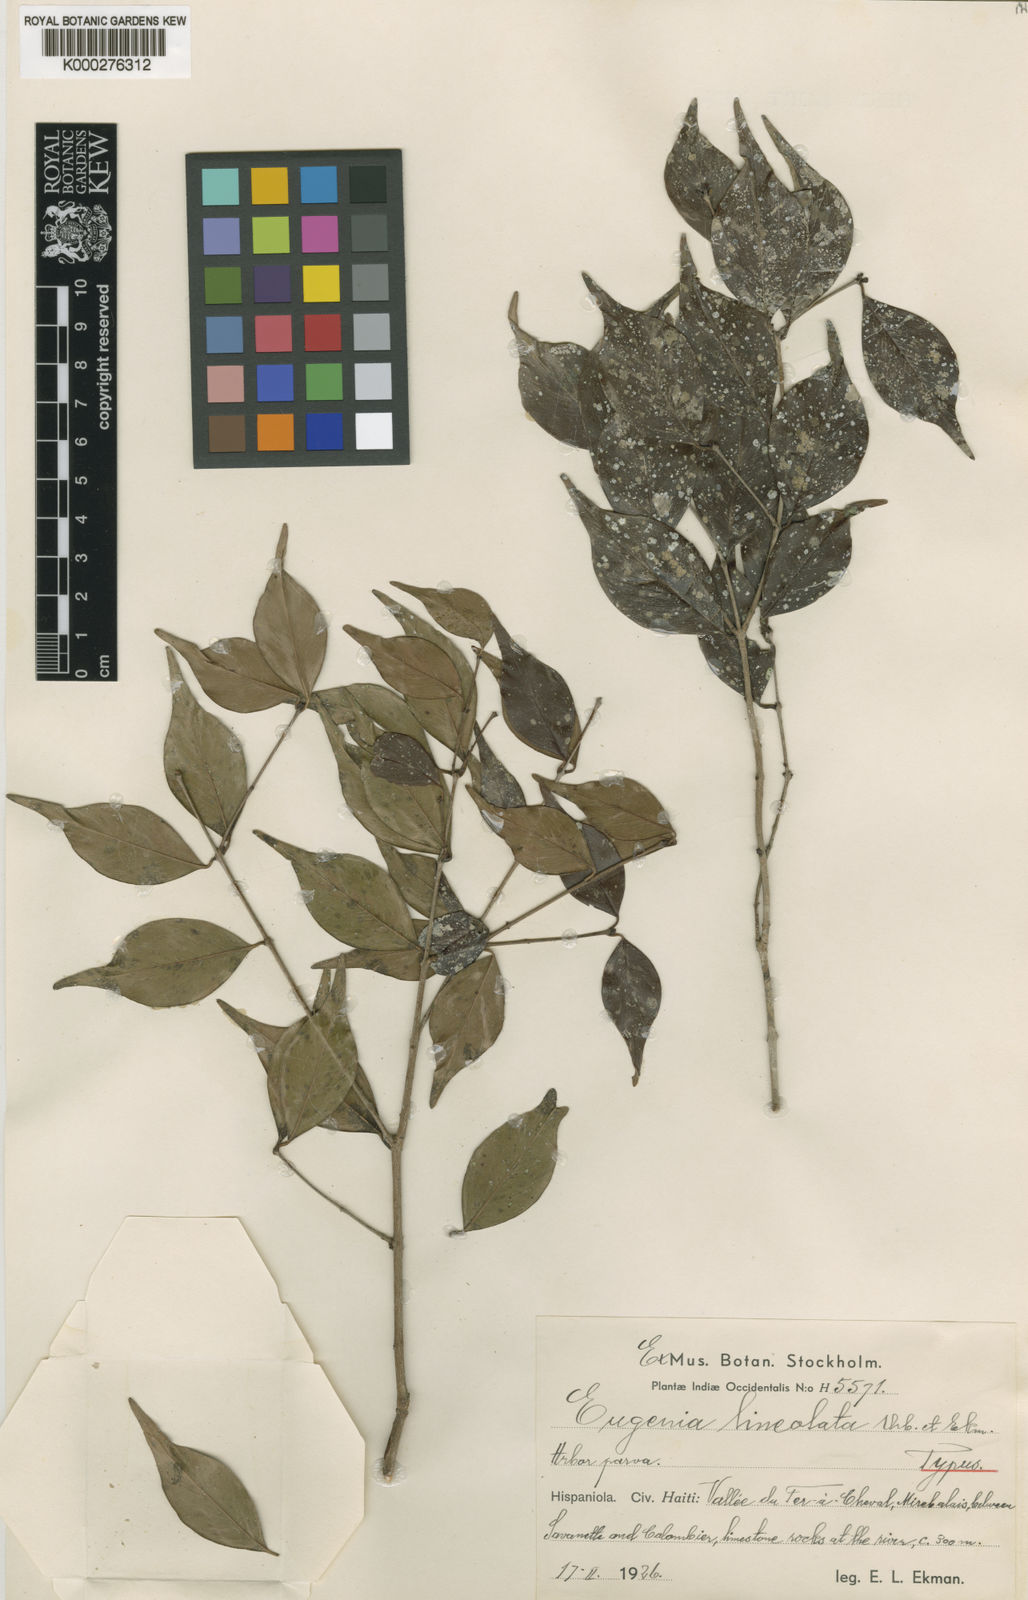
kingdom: Plantae
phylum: Tracheophyta
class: Magnoliopsida
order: Myrtales
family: Myrtaceae
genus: Eugenia
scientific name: Eugenia lineolata
